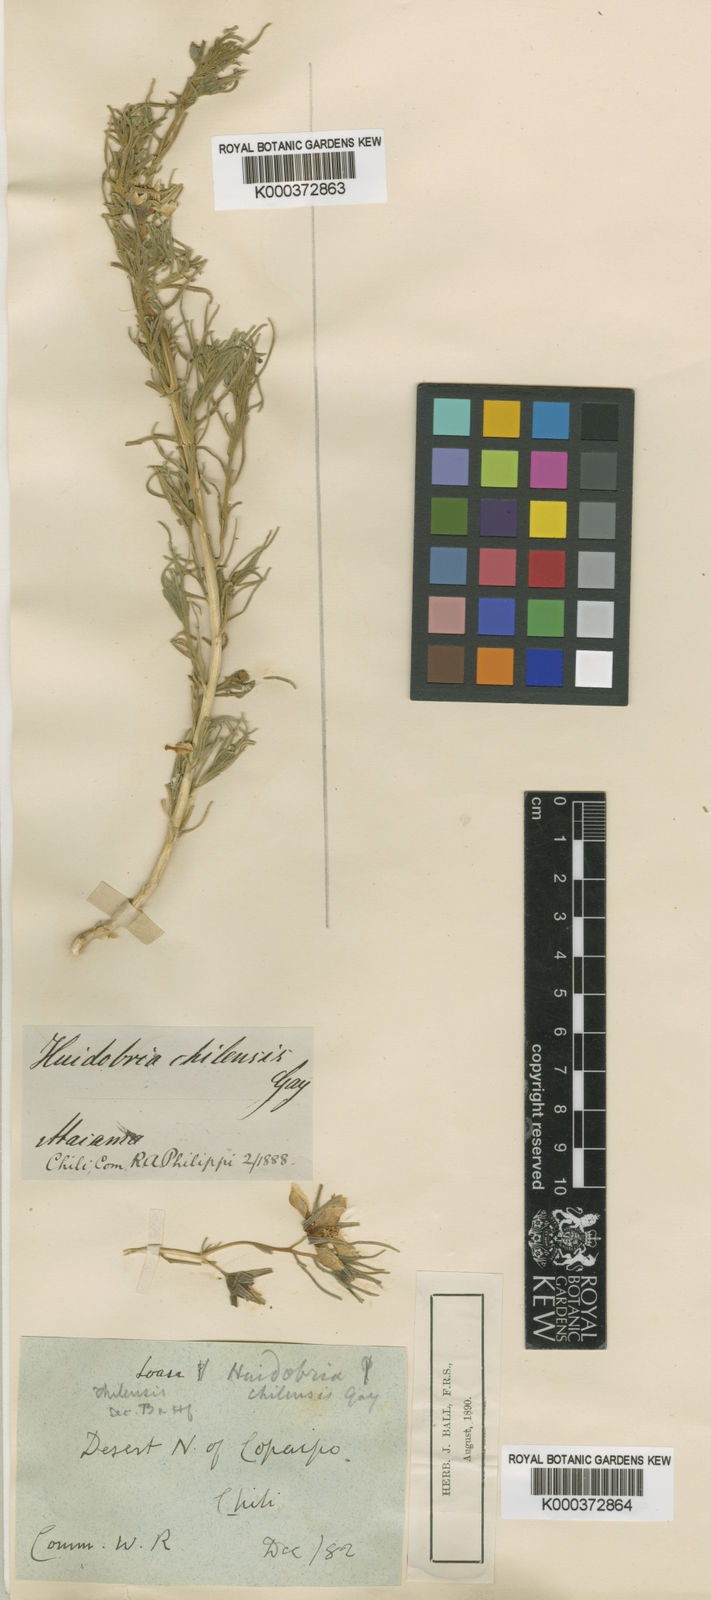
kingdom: Plantae
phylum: Tracheophyta
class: Magnoliopsida
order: Cornales
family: Loasaceae
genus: Huidobria
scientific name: Huidobria chilensis
